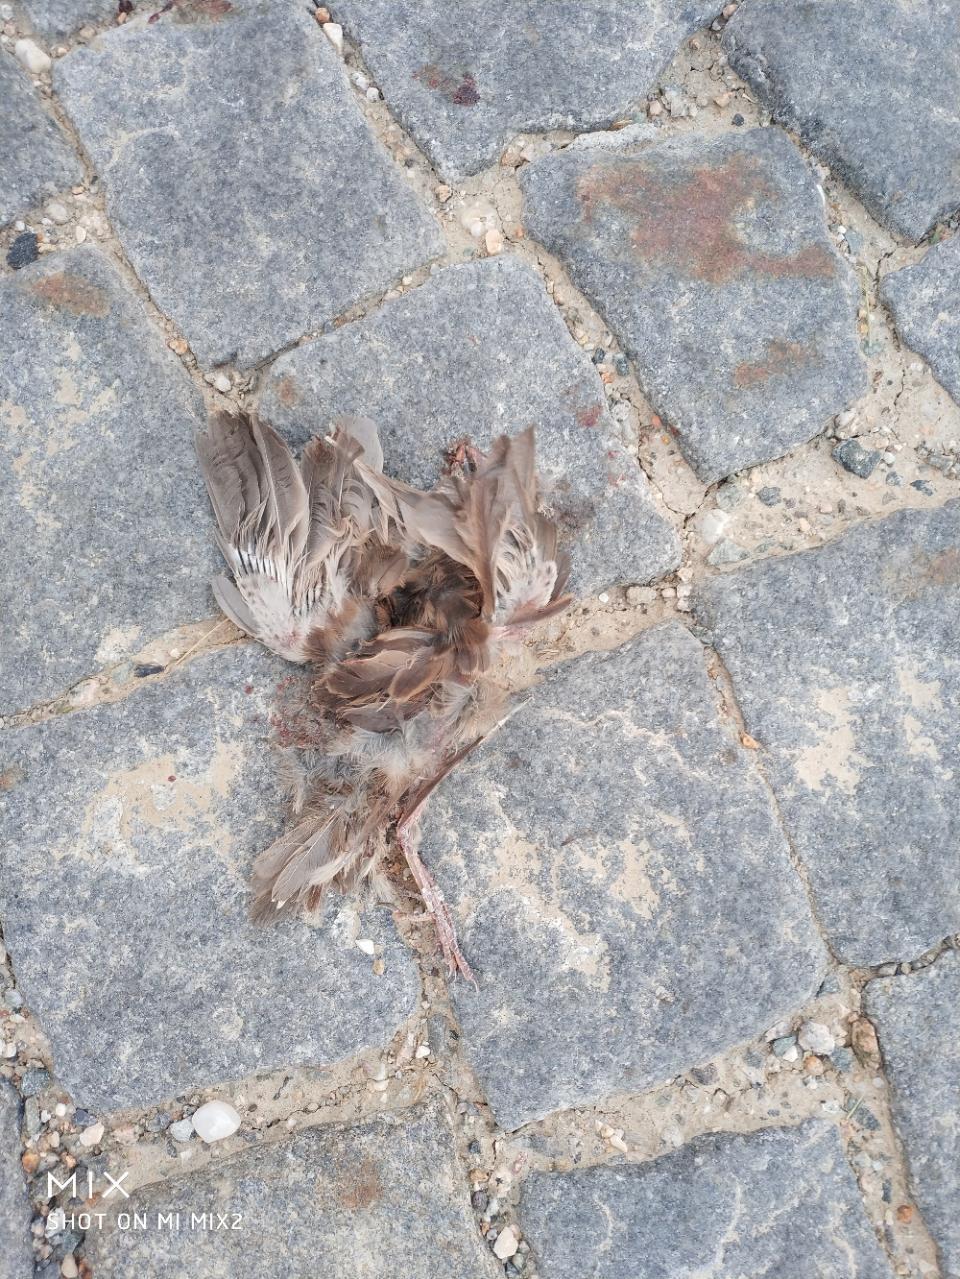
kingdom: Animalia
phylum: Chordata
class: Aves
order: Passeriformes
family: Passeridae
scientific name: Passeridae
